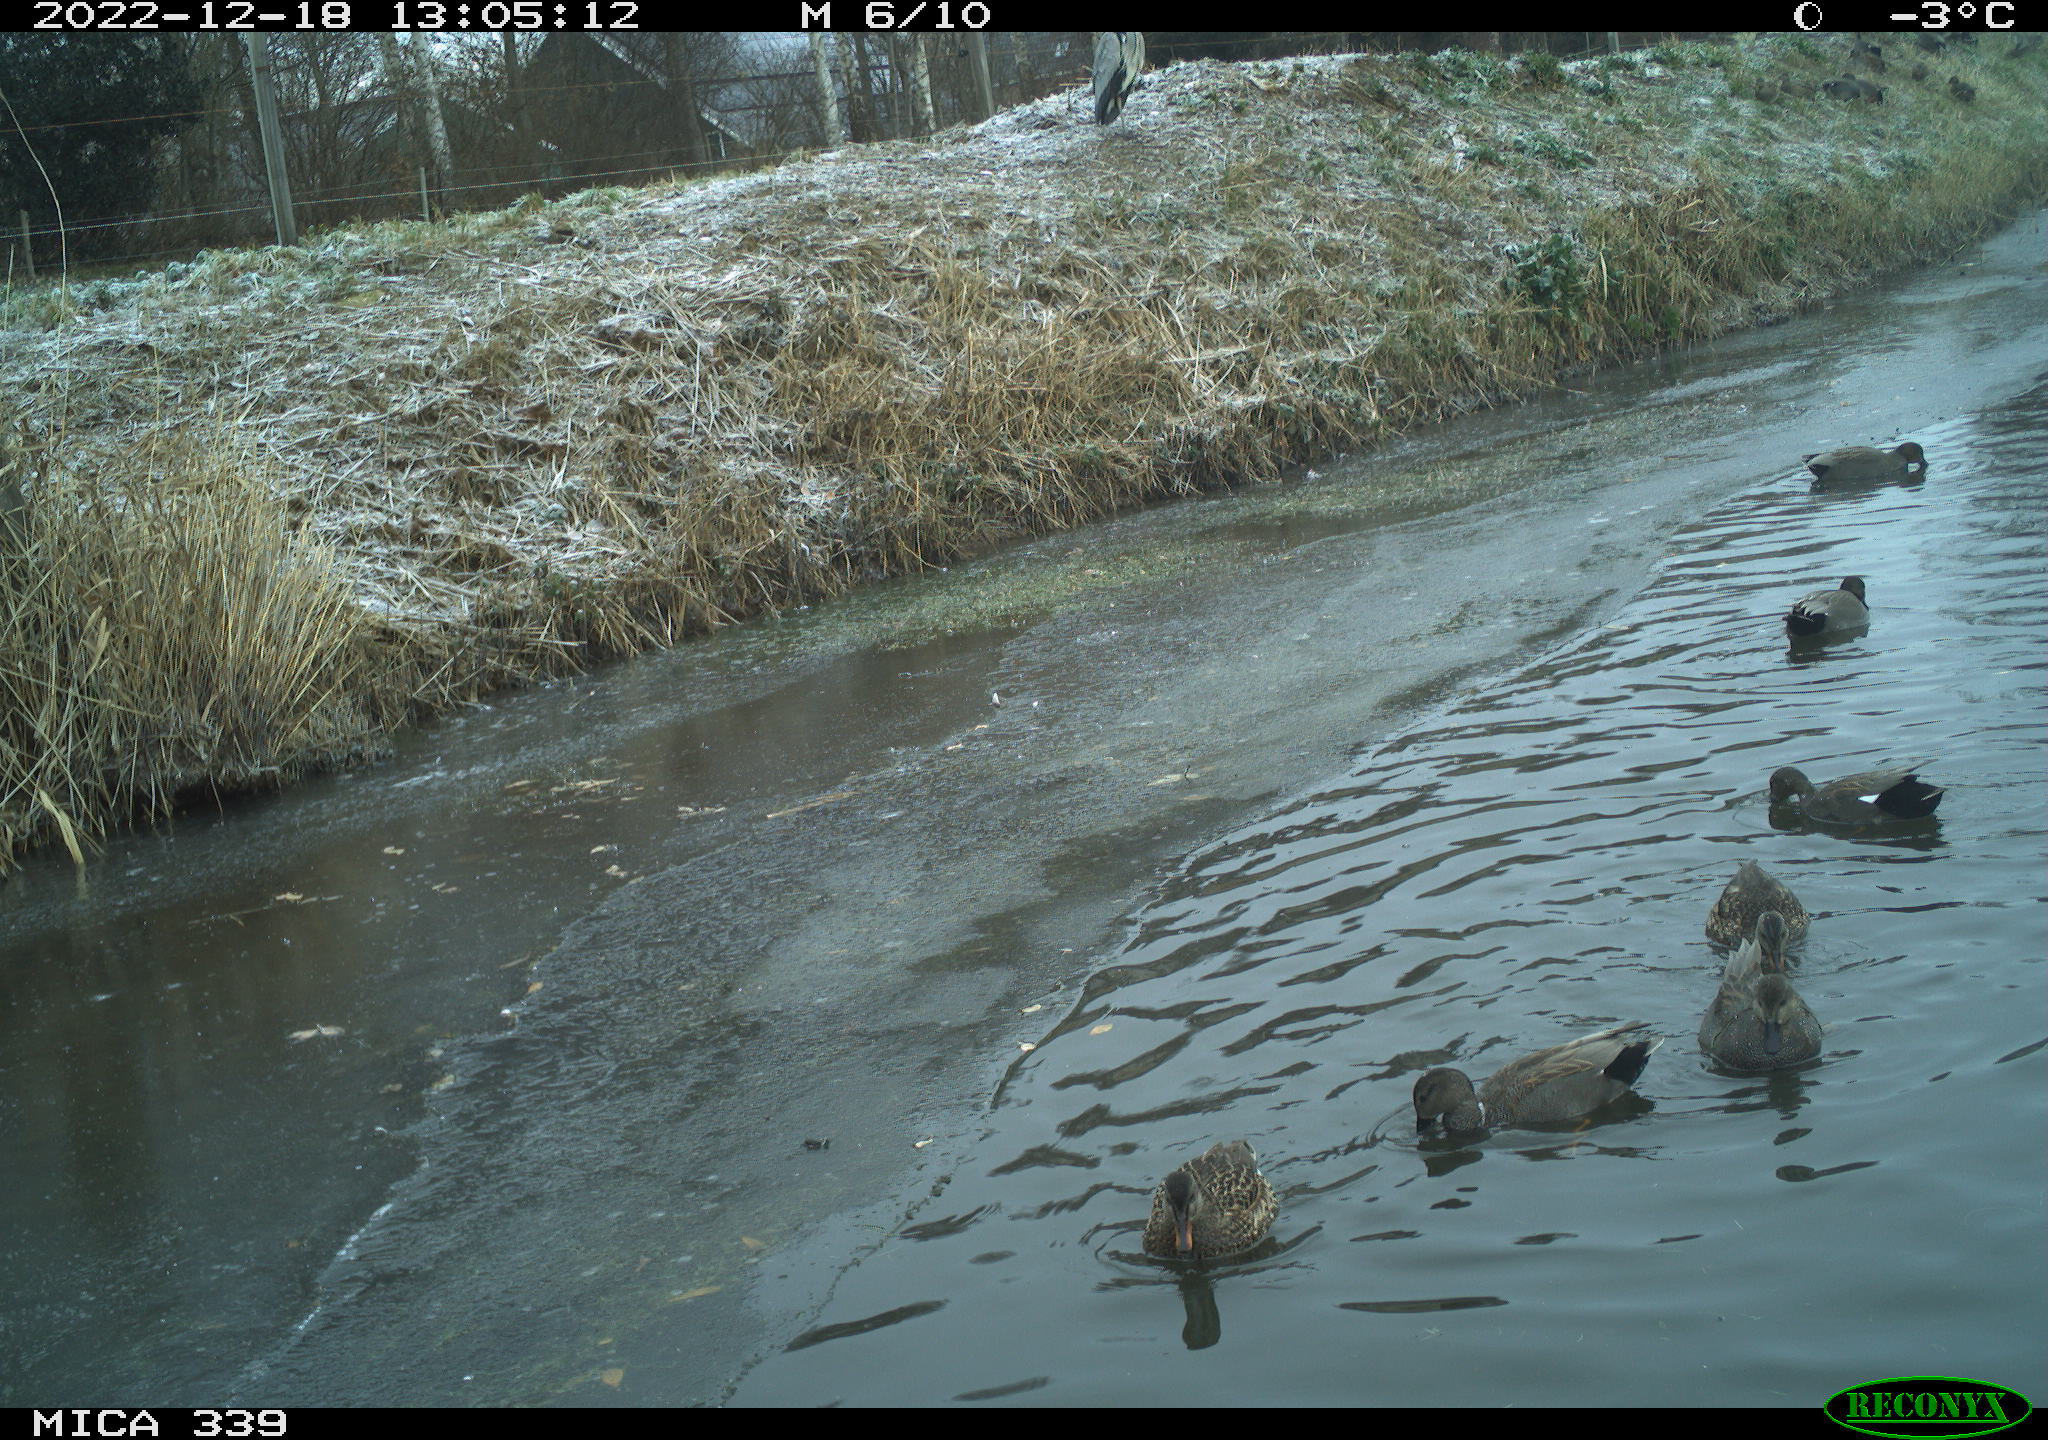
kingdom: Animalia
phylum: Chordata
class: Aves
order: Anseriformes
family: Anatidae
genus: Anas
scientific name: Anas
